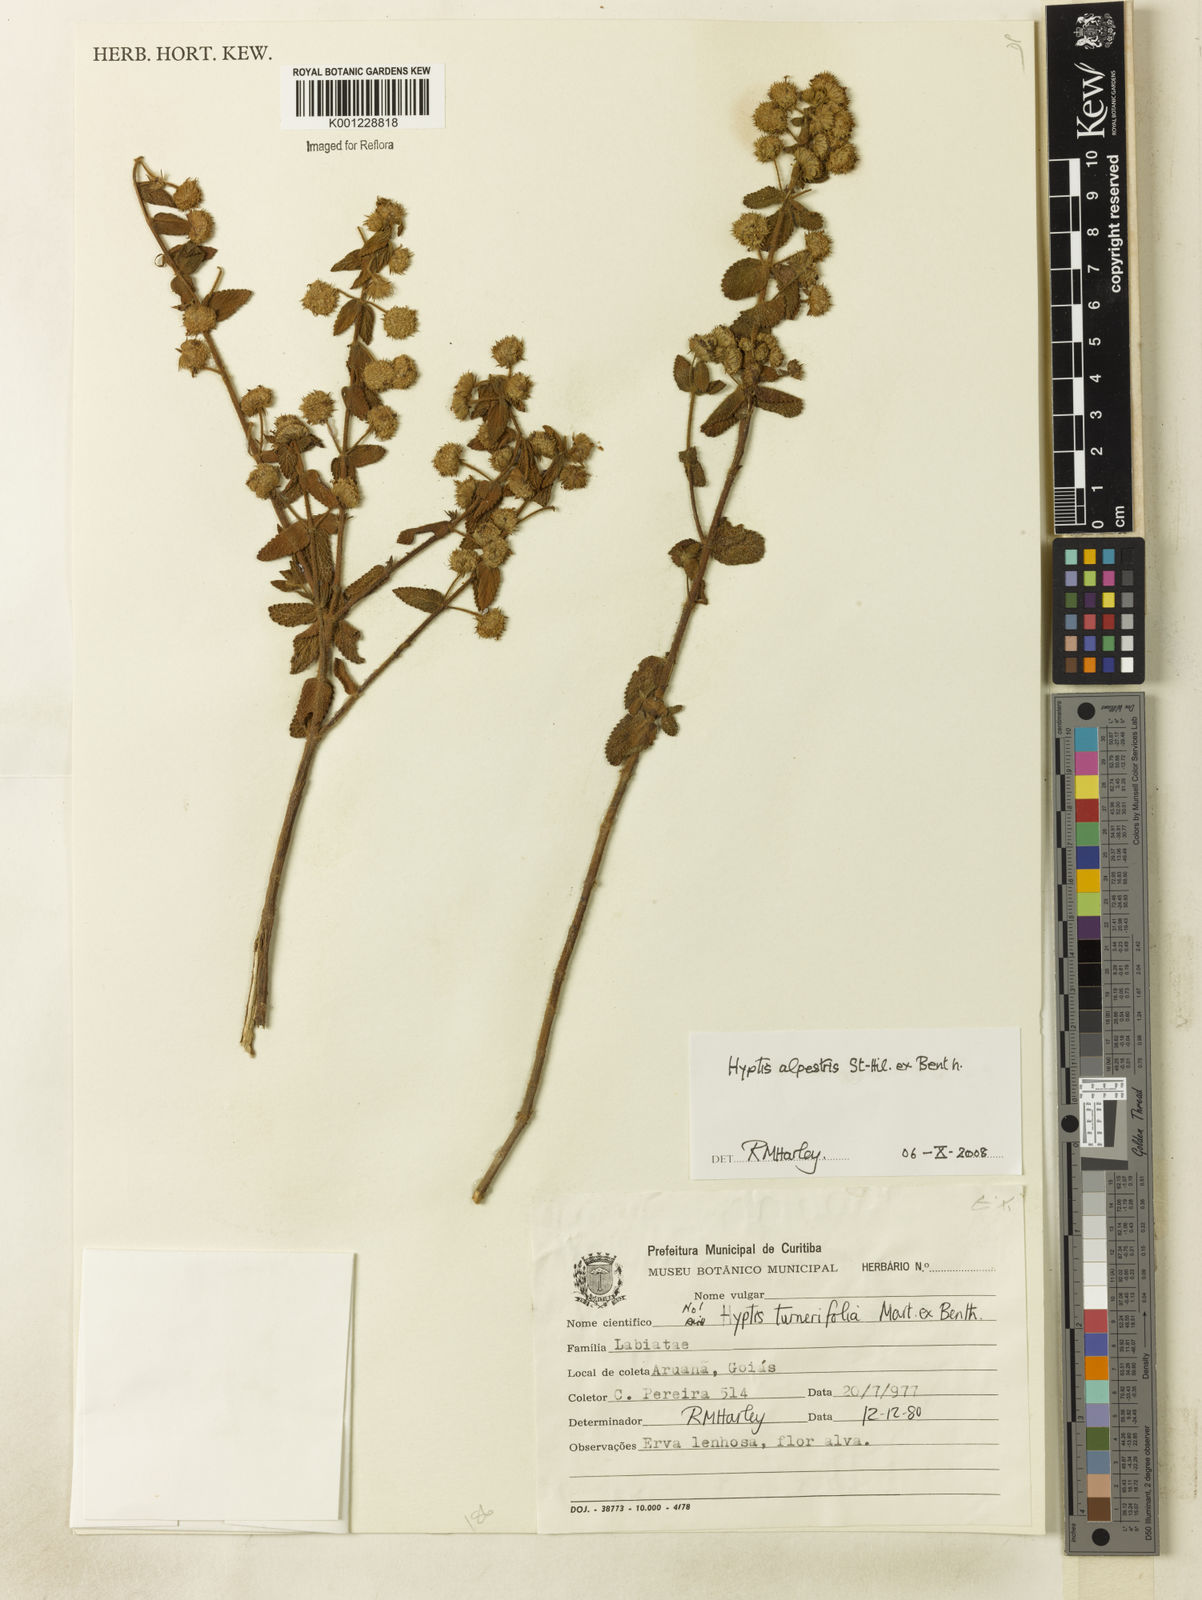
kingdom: Plantae
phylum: Tracheophyta
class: Magnoliopsida
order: Lamiales
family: Lamiaceae
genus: Hyptis
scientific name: Hyptis alpestris
